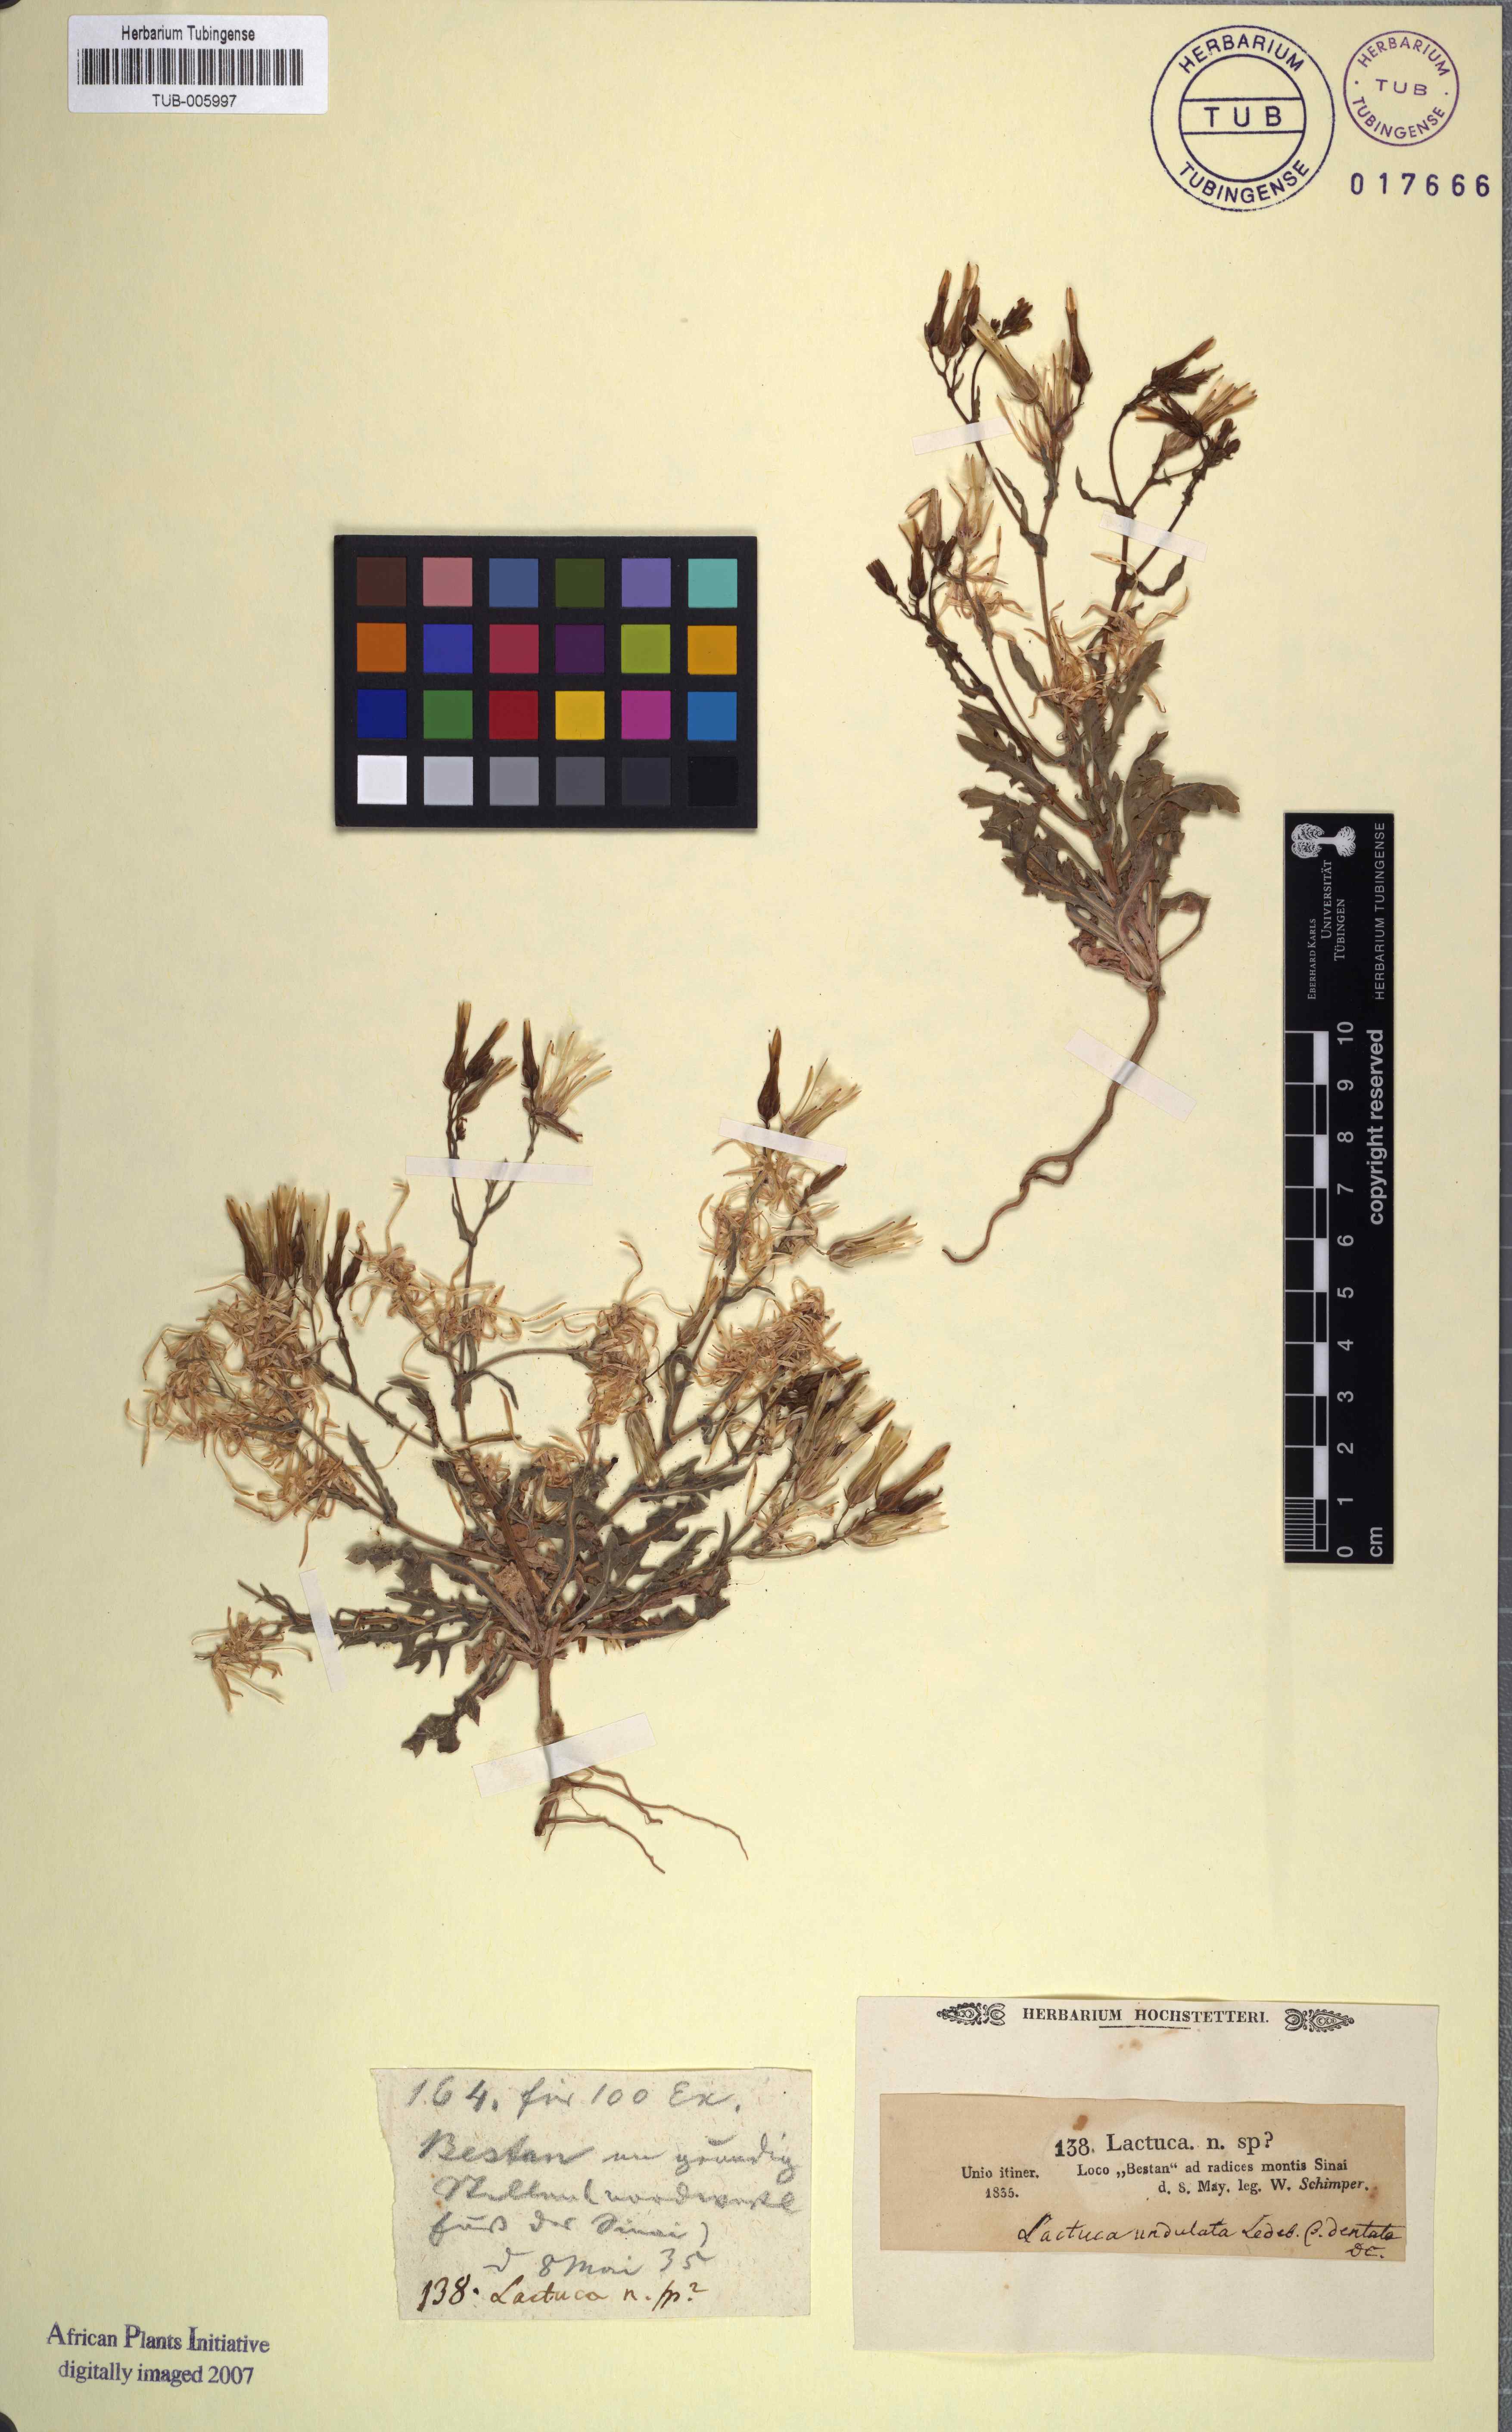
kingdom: Plantae
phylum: Tracheophyta
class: Magnoliopsida
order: Asterales
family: Asteraceae
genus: Lactuca
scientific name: Lactuca undulata
